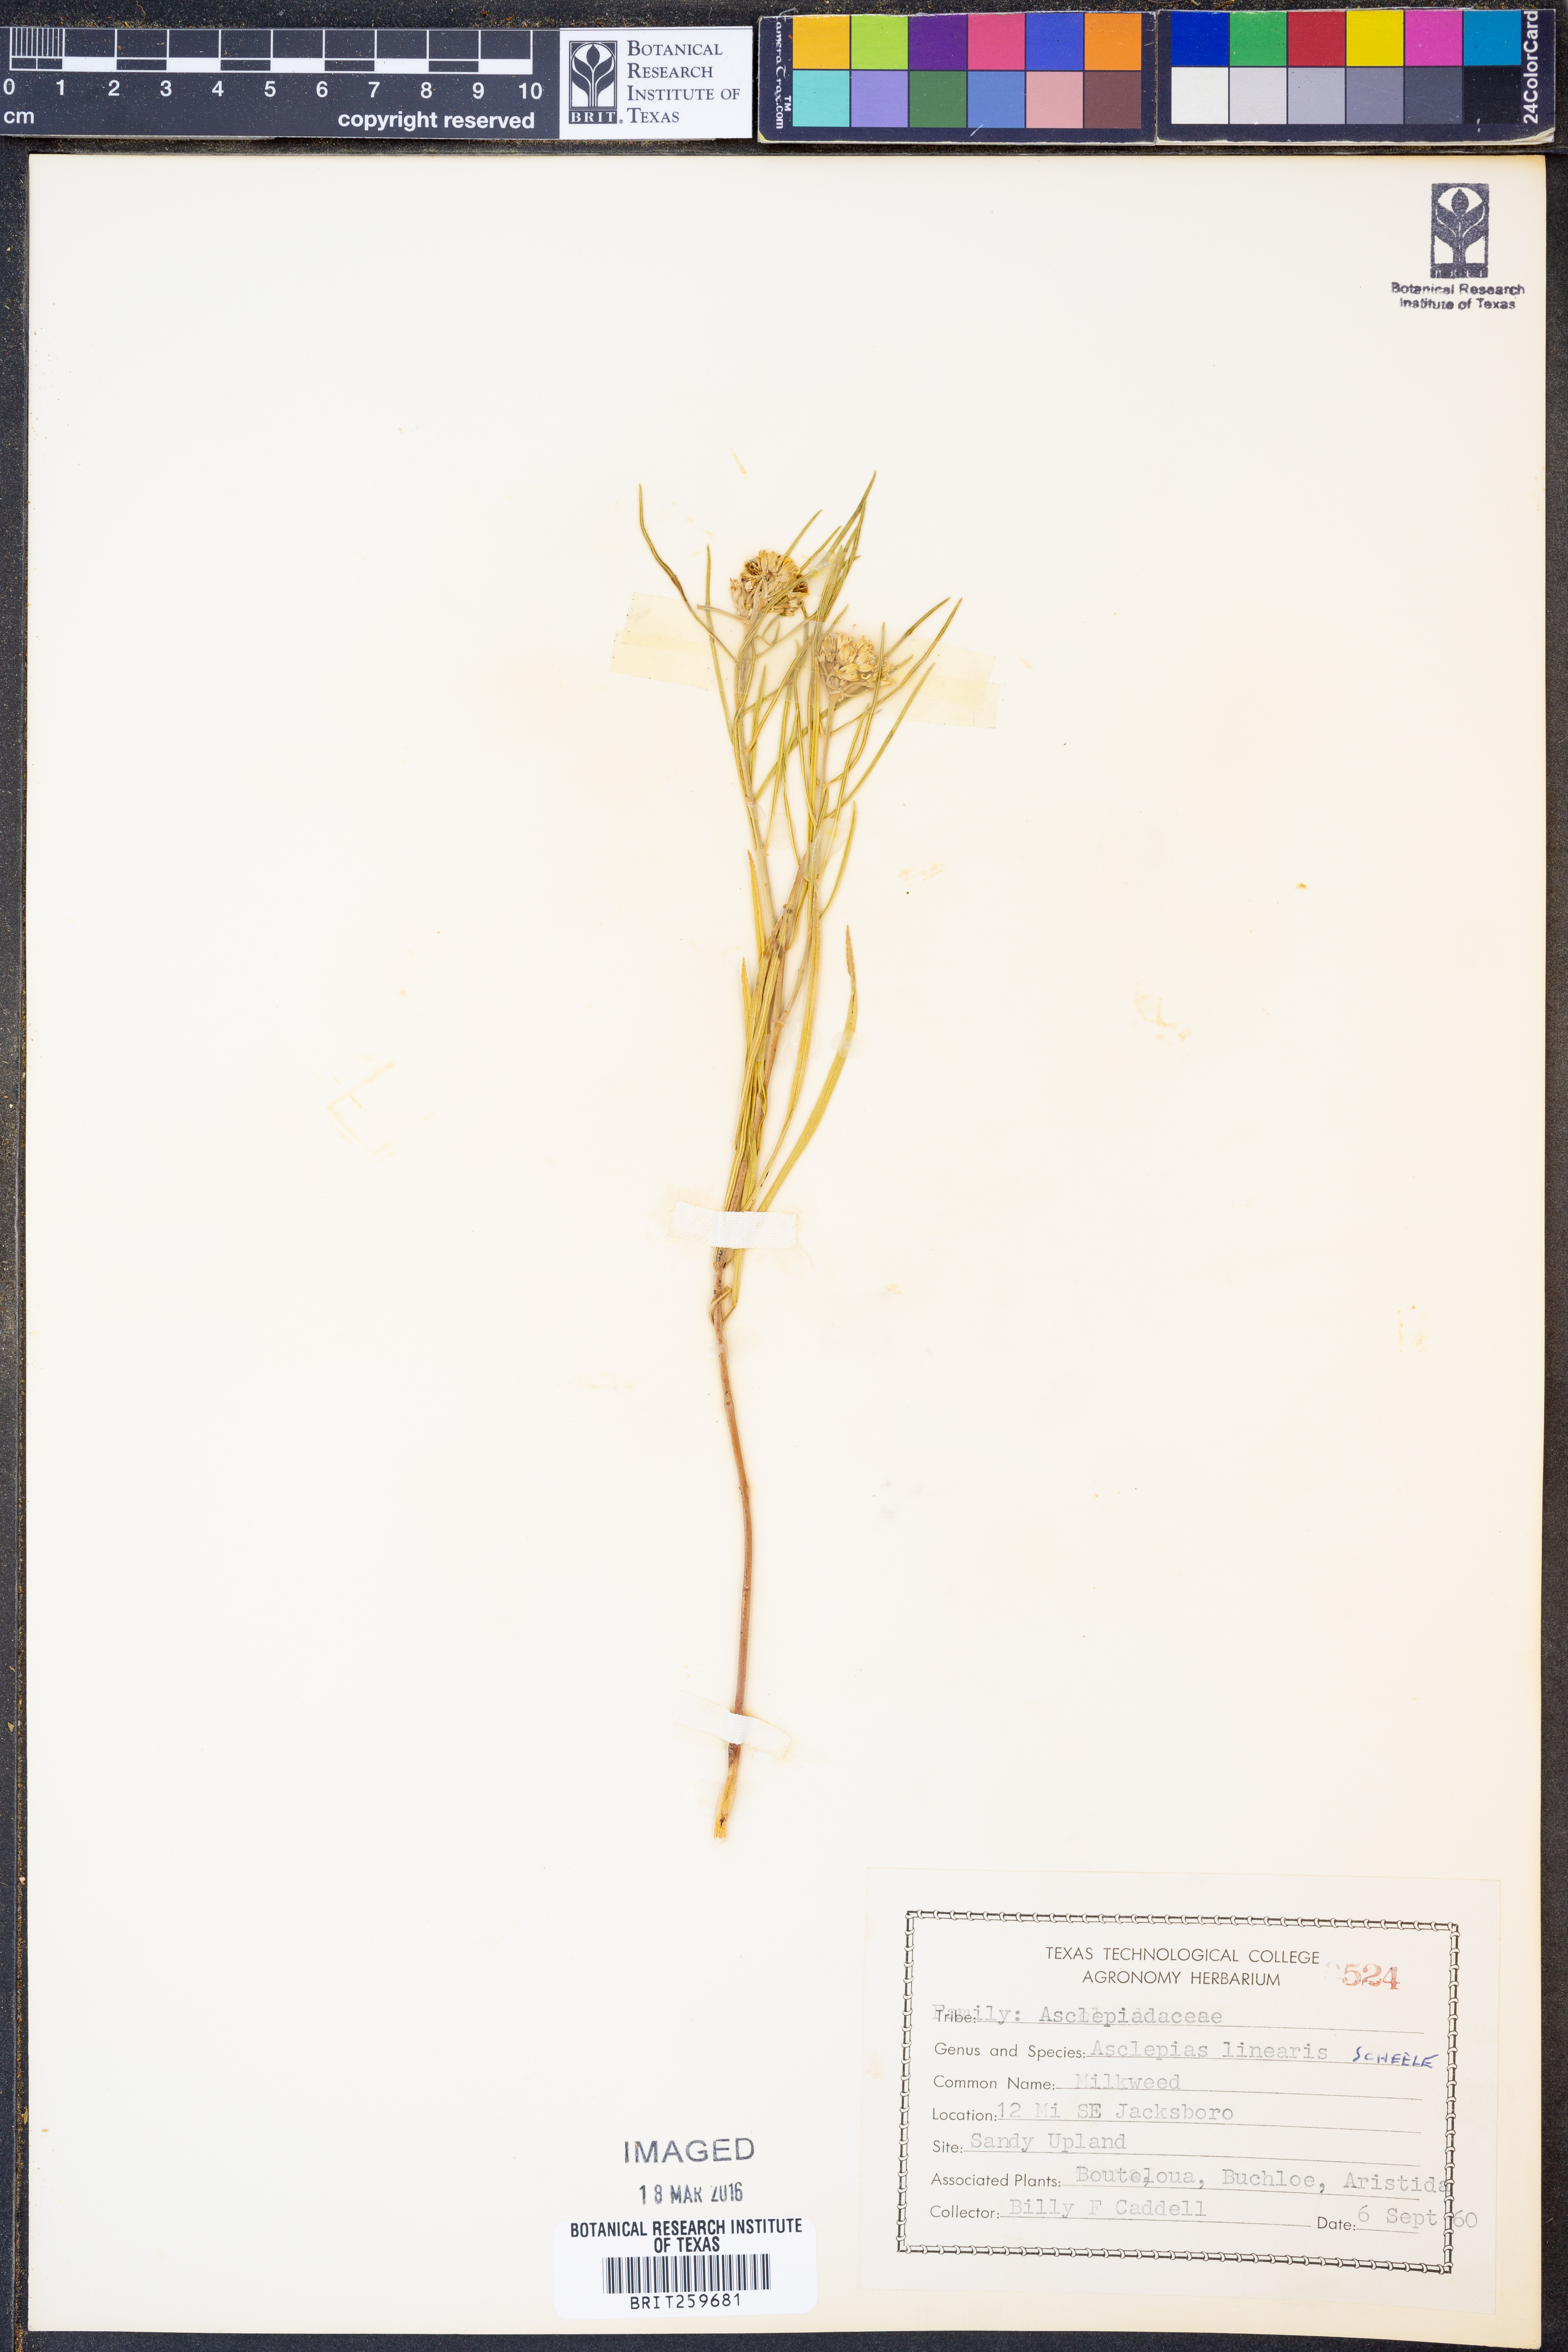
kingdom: Plantae
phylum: Tracheophyta
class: Magnoliopsida
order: Gentianales
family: Apocynaceae
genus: Asclepias
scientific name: Asclepias linearis
